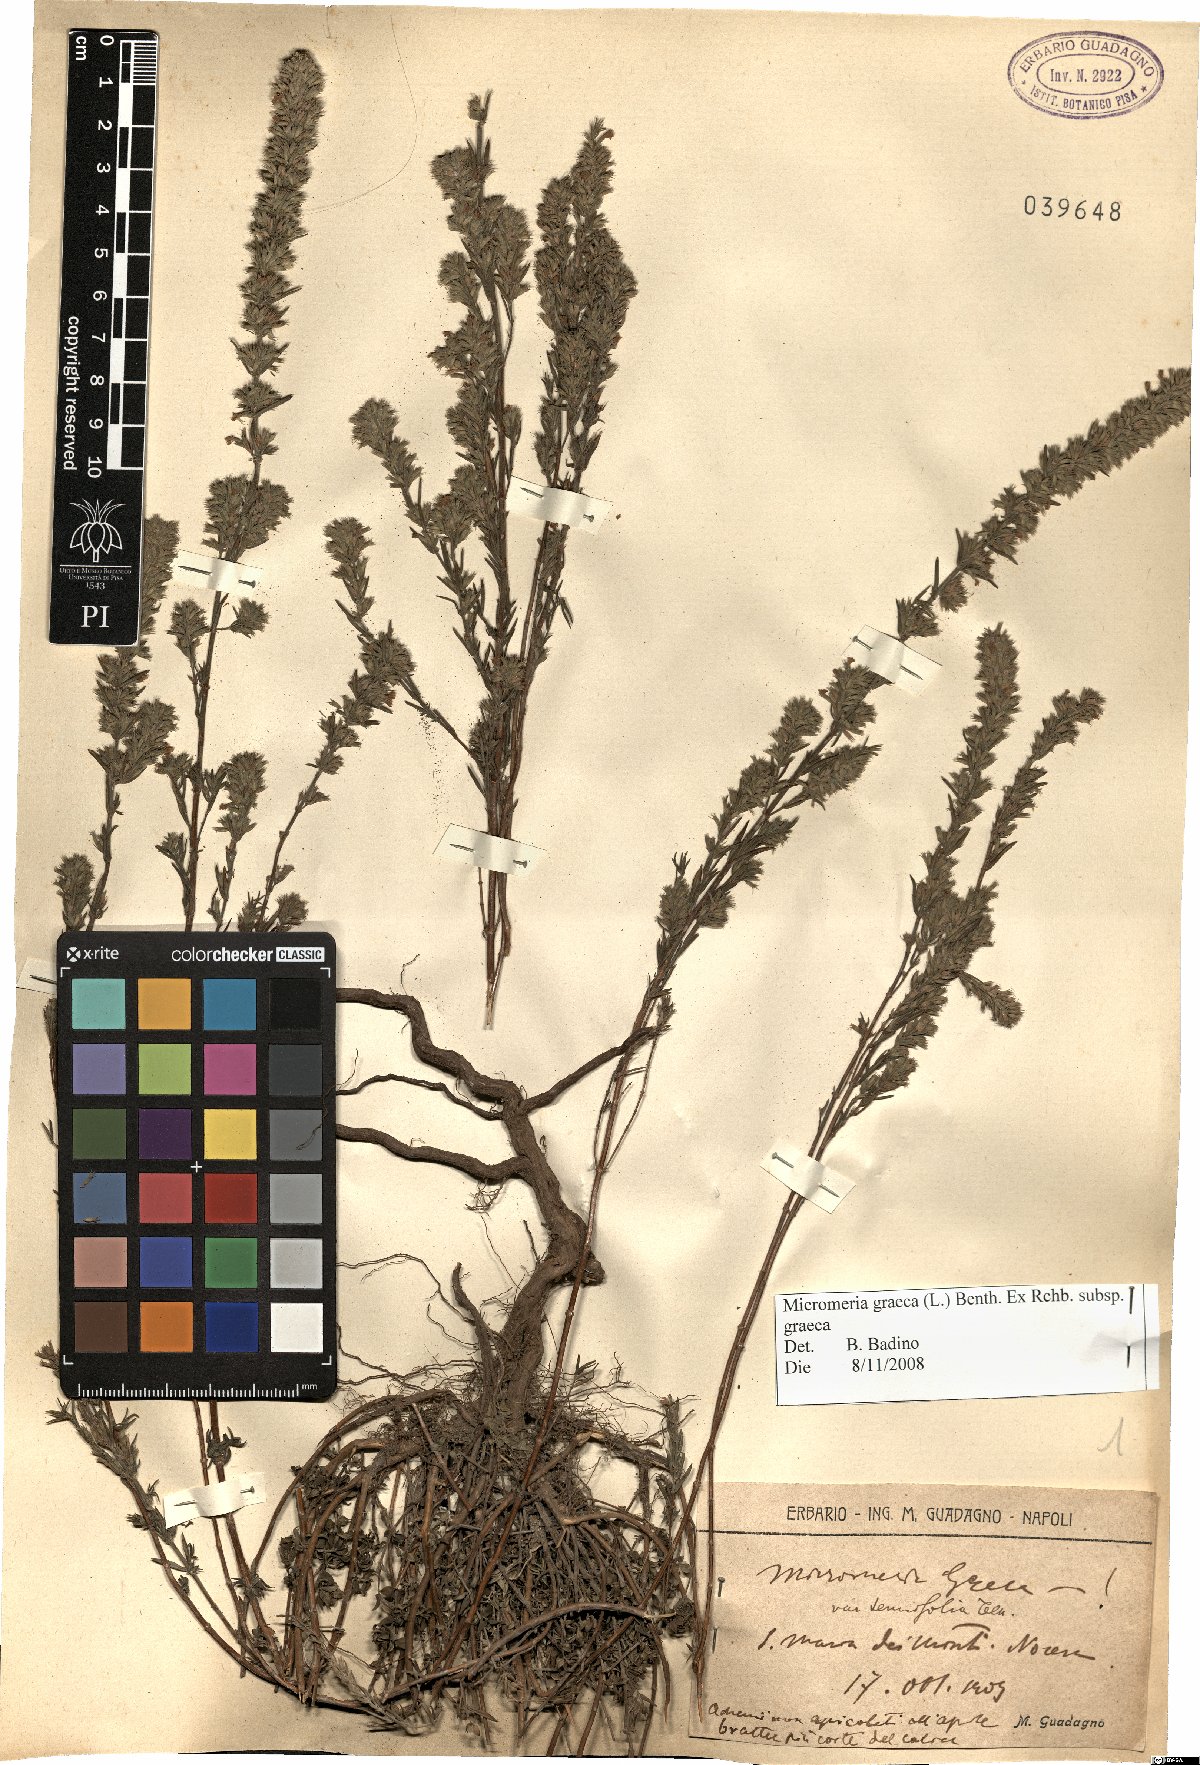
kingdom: Plantae
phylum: Tracheophyta
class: Magnoliopsida
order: Lamiales
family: Lamiaceae
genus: Micromeria
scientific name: Micromeria graeca
